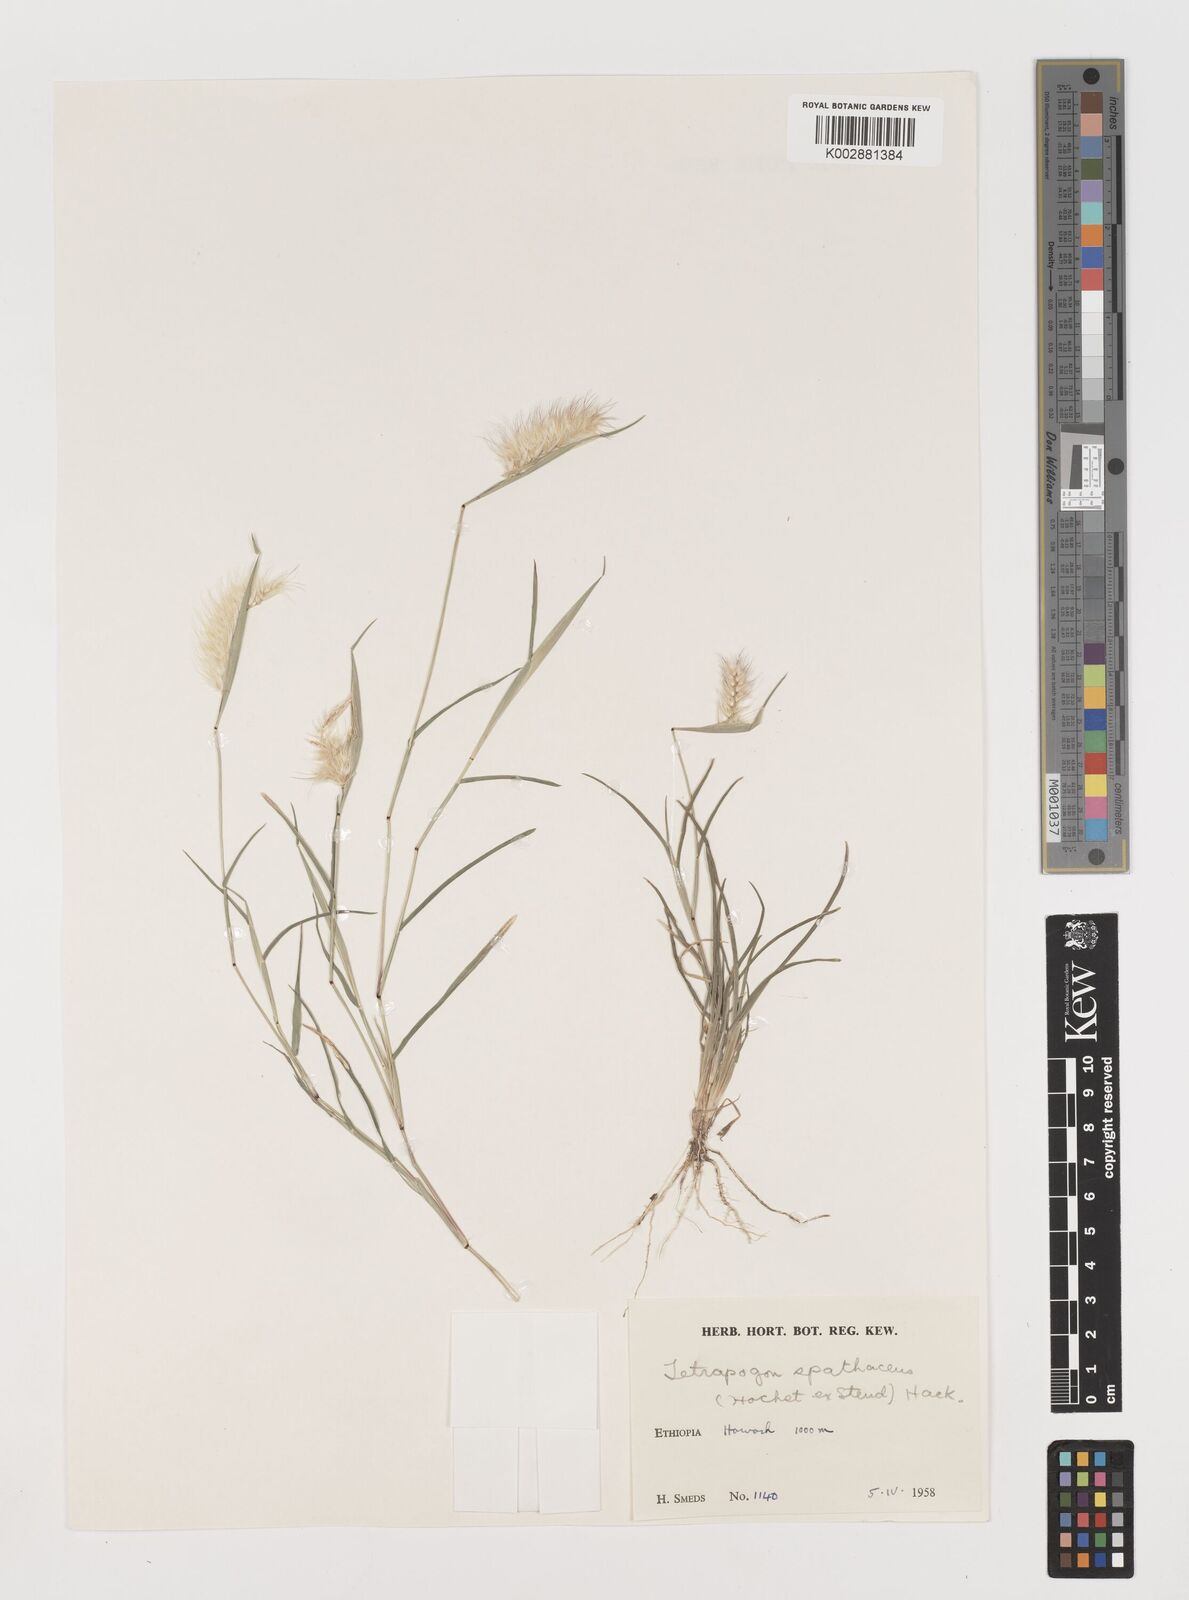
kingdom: Plantae
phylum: Tracheophyta
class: Liliopsida
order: Poales
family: Poaceae
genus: Tetrapogon
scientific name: Tetrapogon cenchriformis
